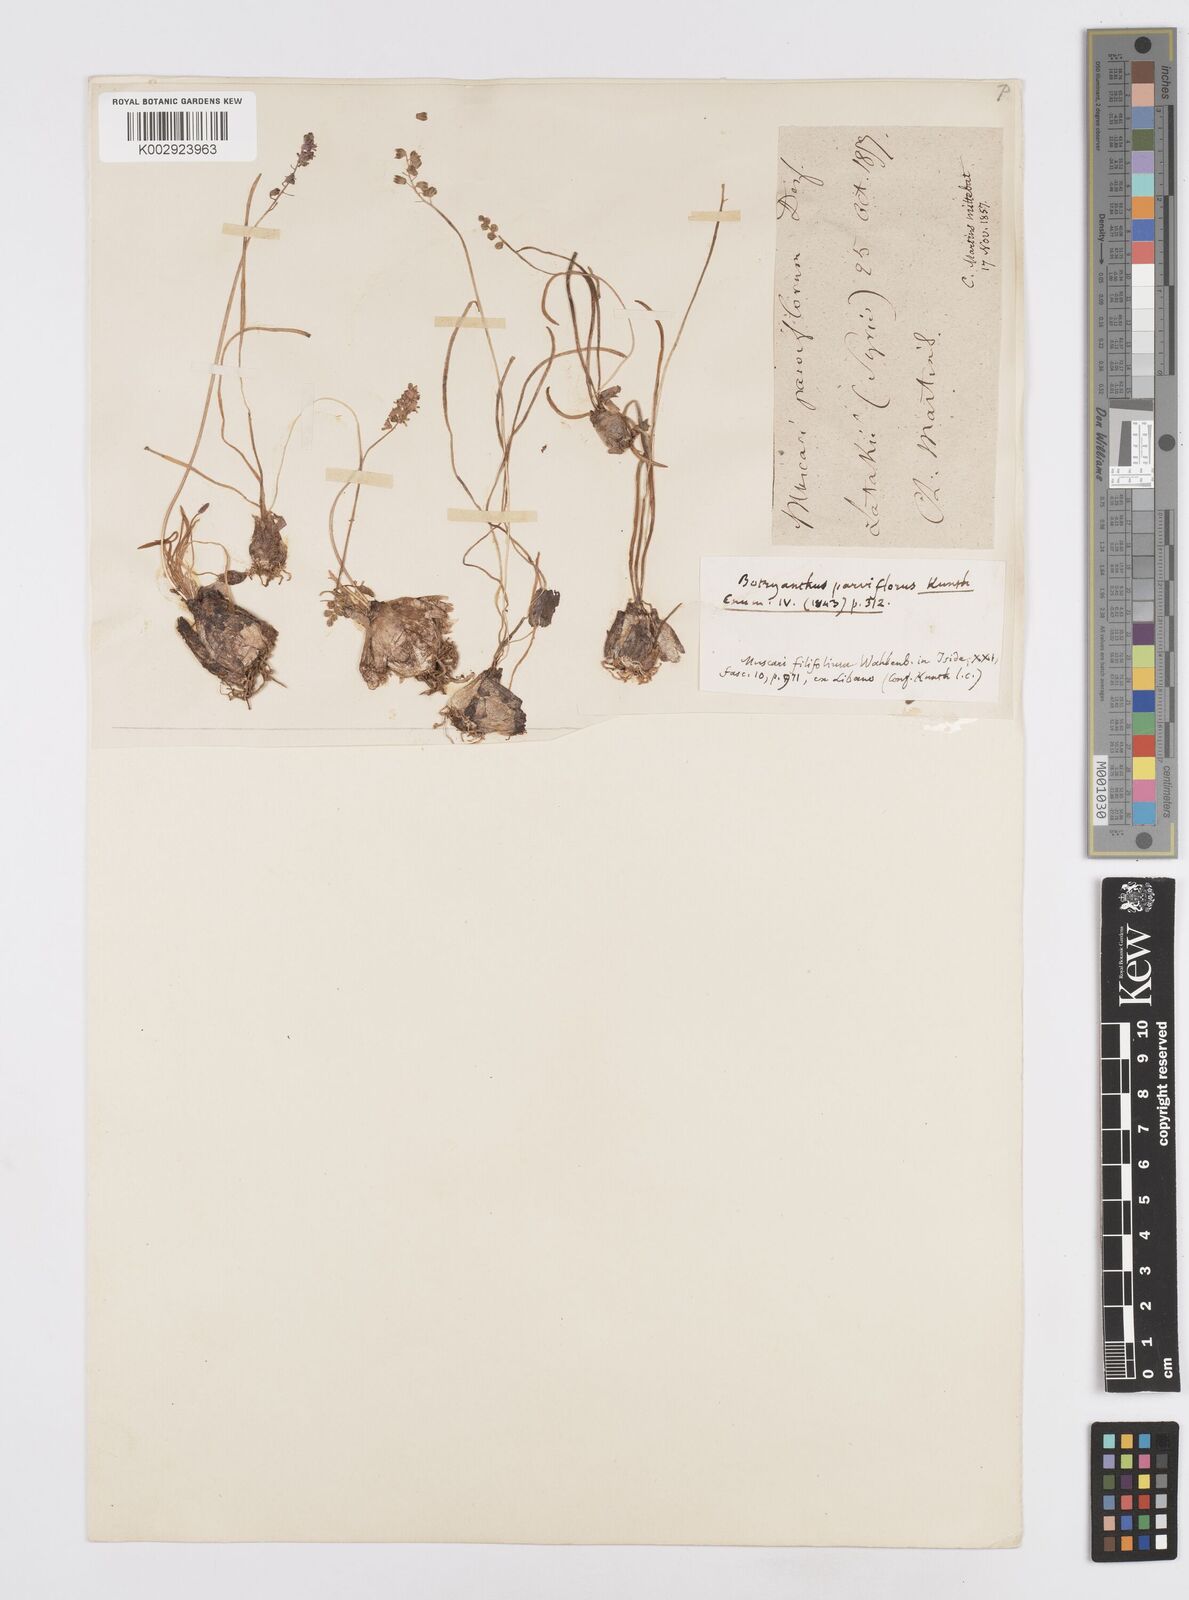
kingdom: Plantae
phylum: Tracheophyta
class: Liliopsida
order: Asparagales
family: Asparagaceae
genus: Muscari
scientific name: Muscari parviflorum
